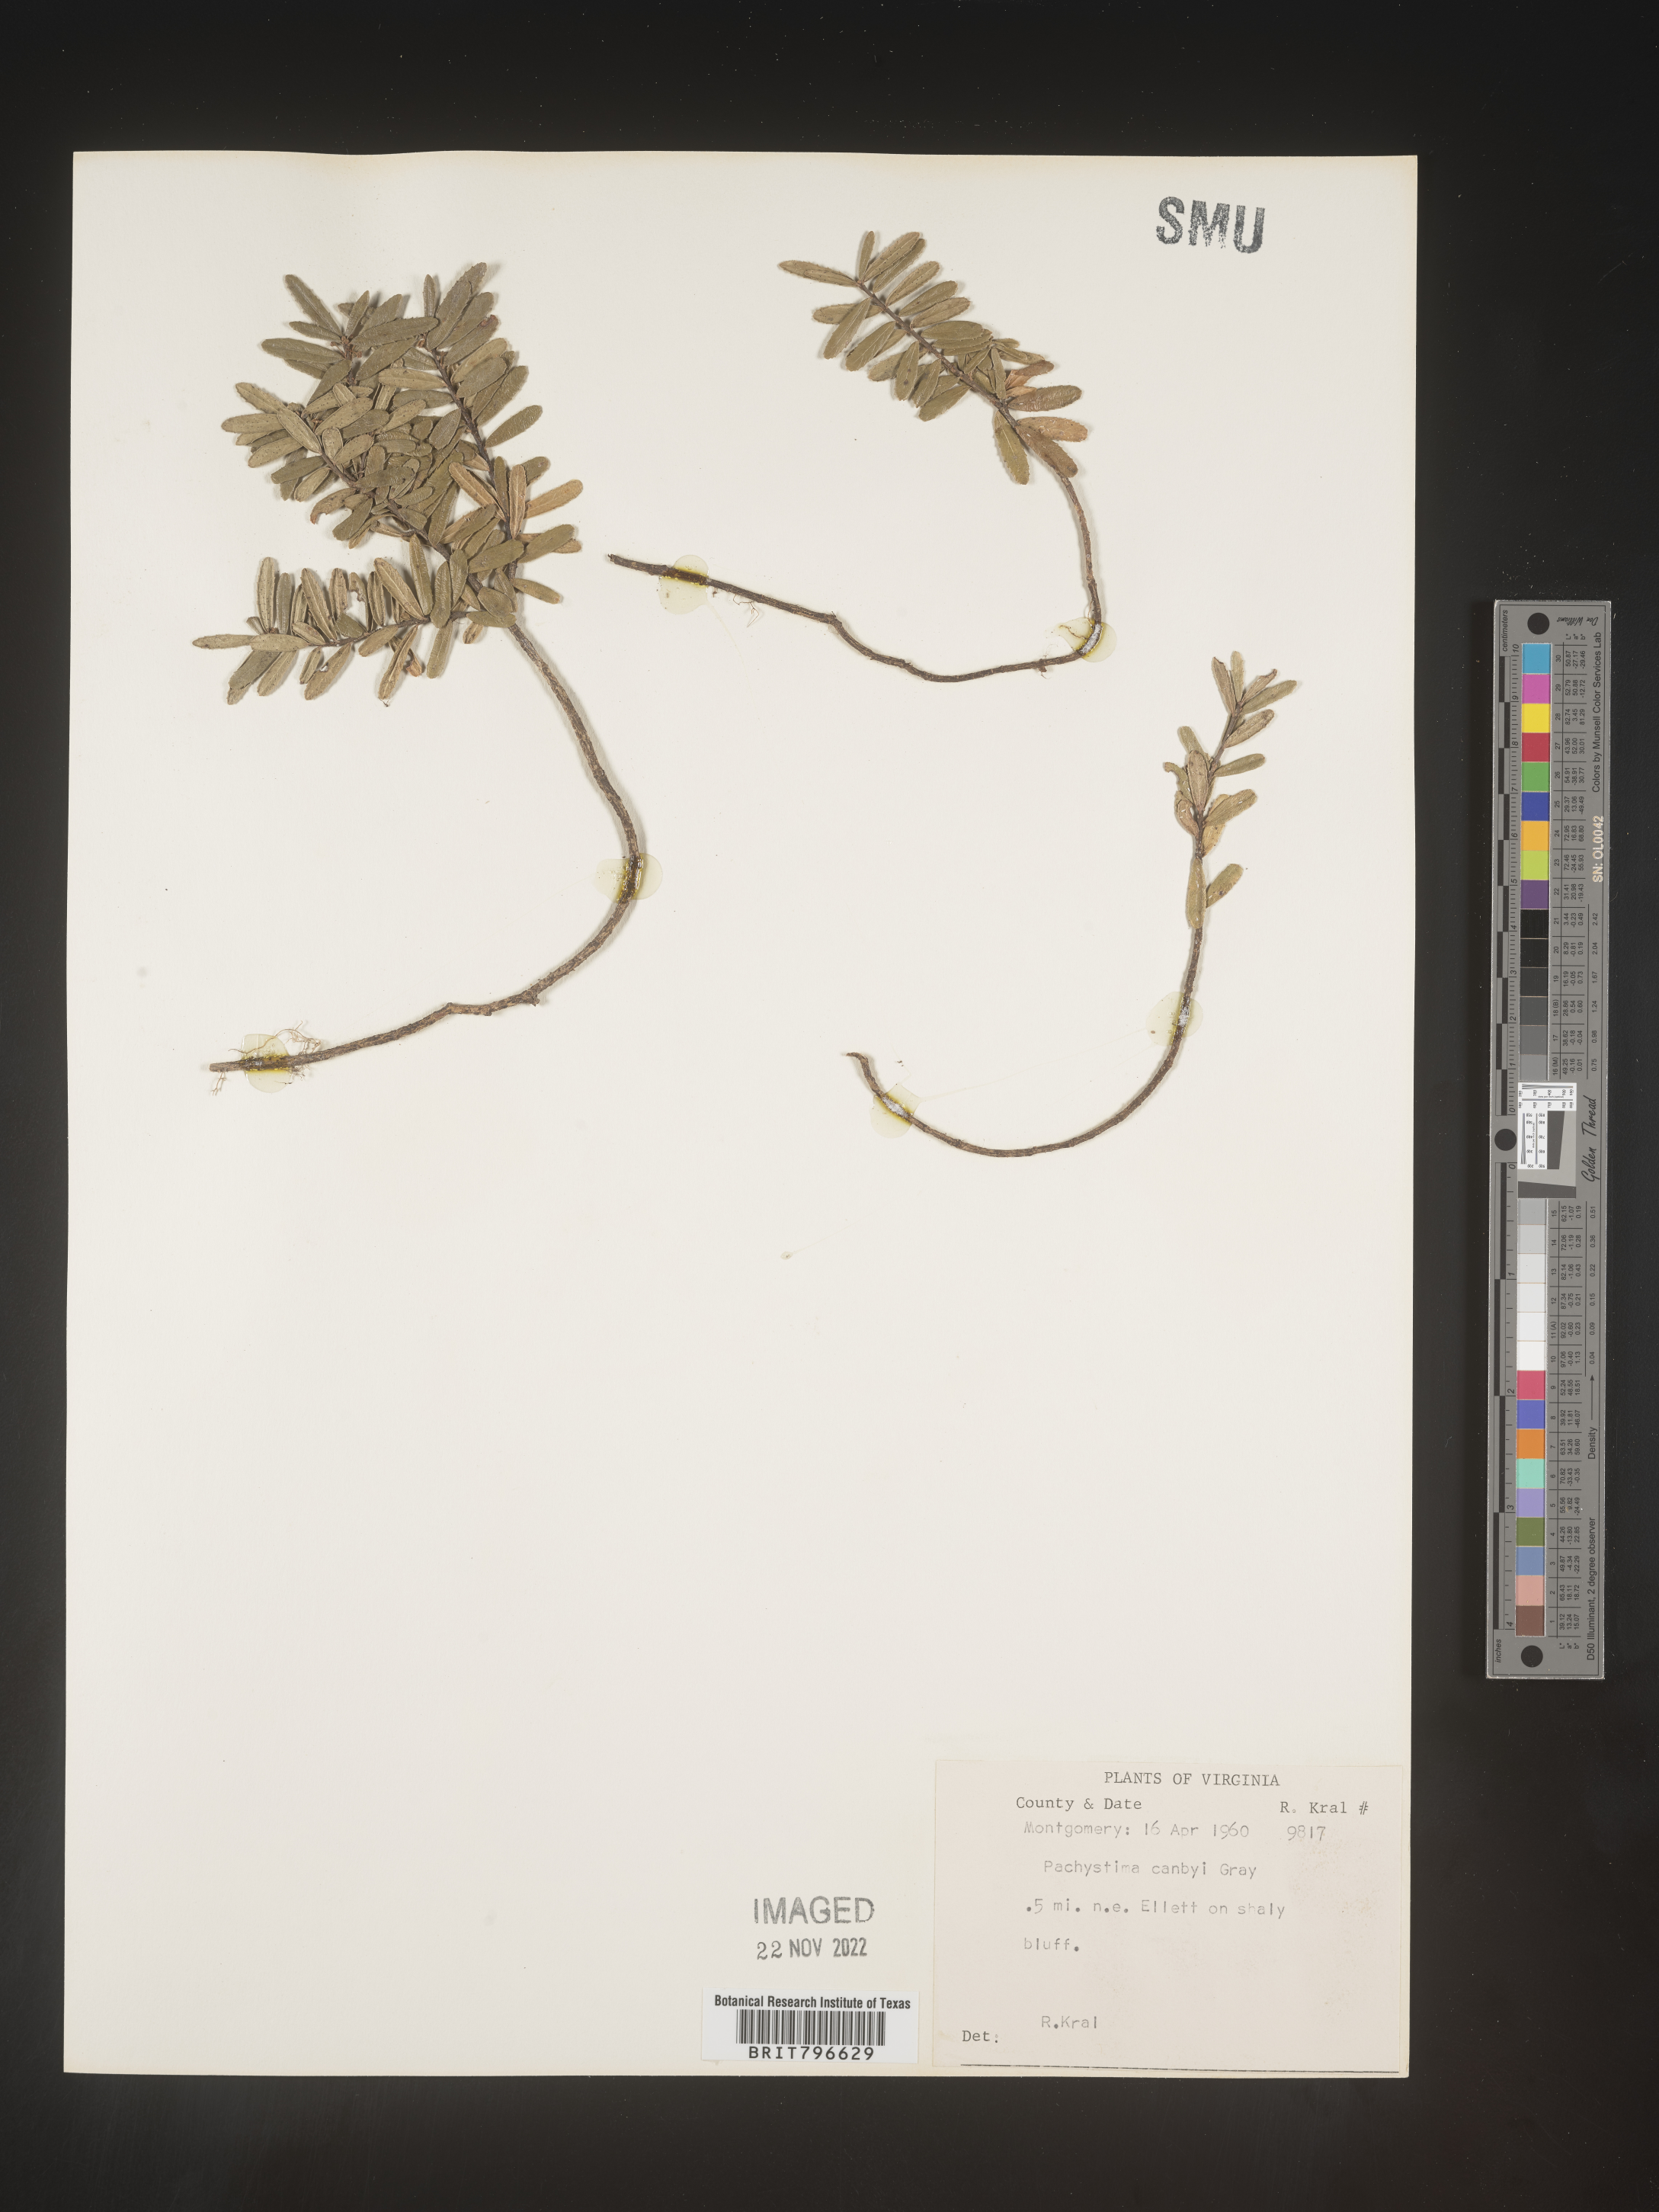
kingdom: Plantae
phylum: Tracheophyta
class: Magnoliopsida
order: Celastrales
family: Celastraceae
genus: Paxistima
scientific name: Paxistima canbyi
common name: Cliffgreen
